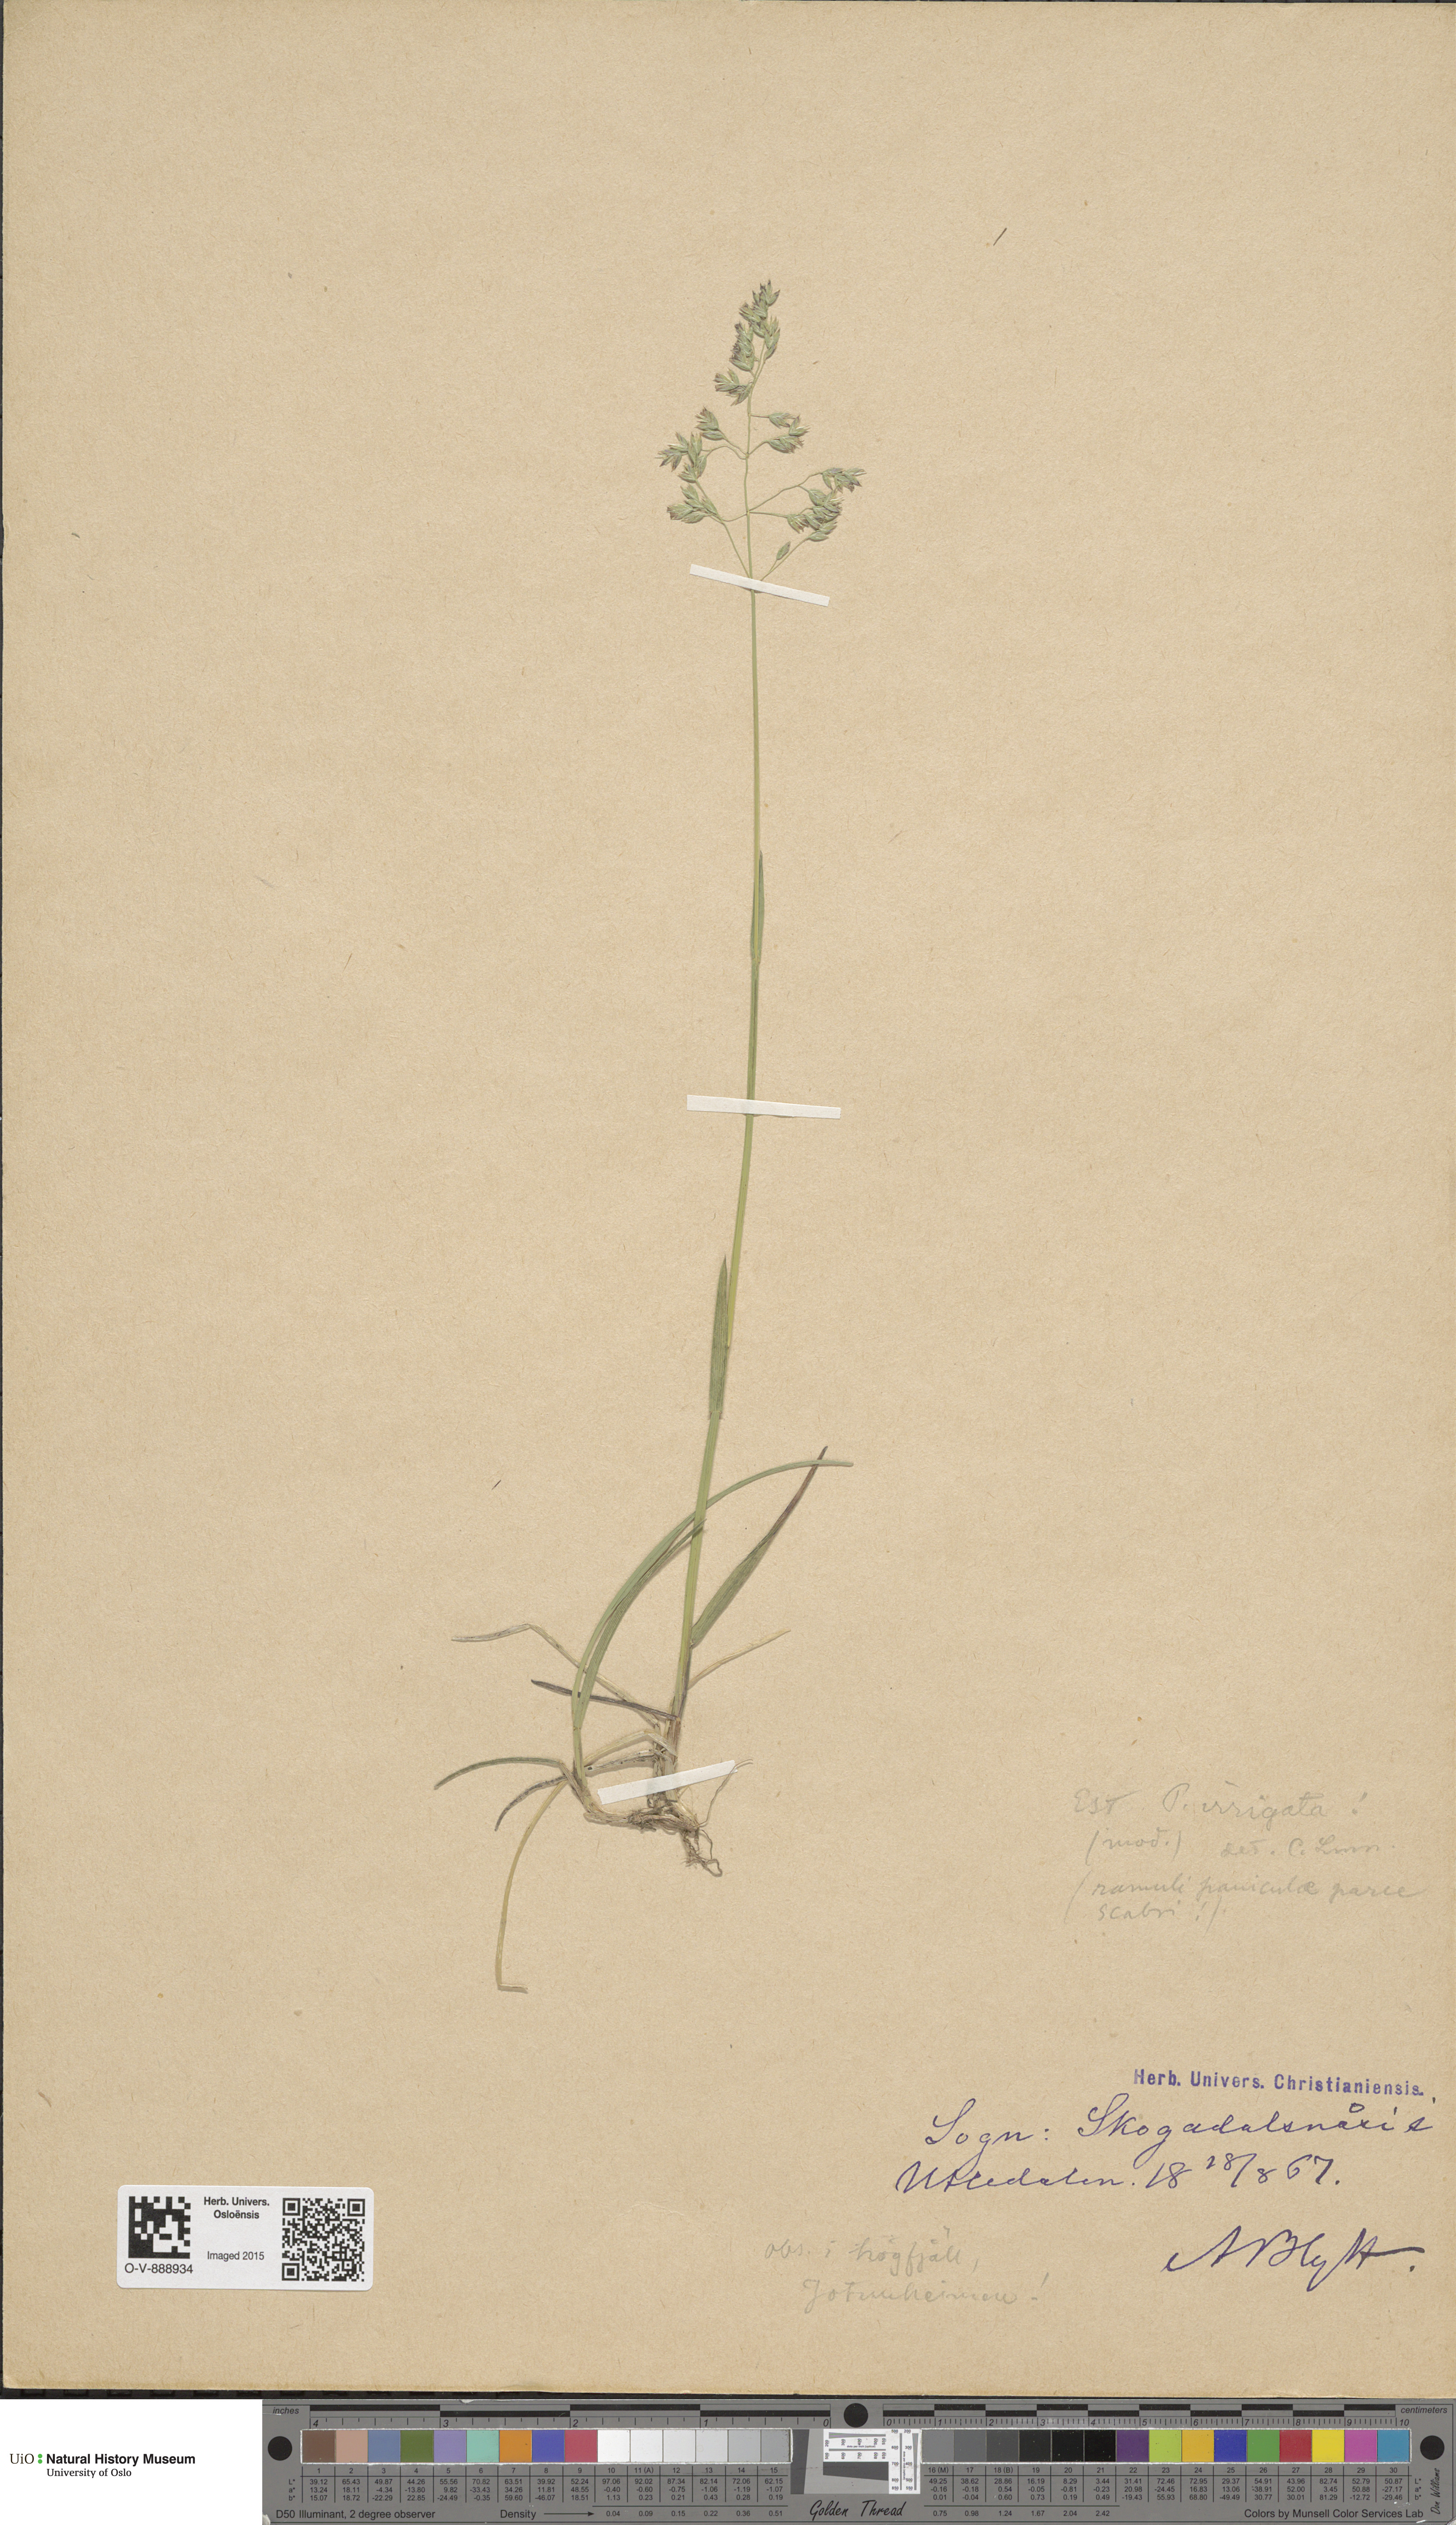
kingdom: Plantae
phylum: Tracheophyta
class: Liliopsida
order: Poales
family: Poaceae
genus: Poa
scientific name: Poa humilis
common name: Spreading meadow-grass
